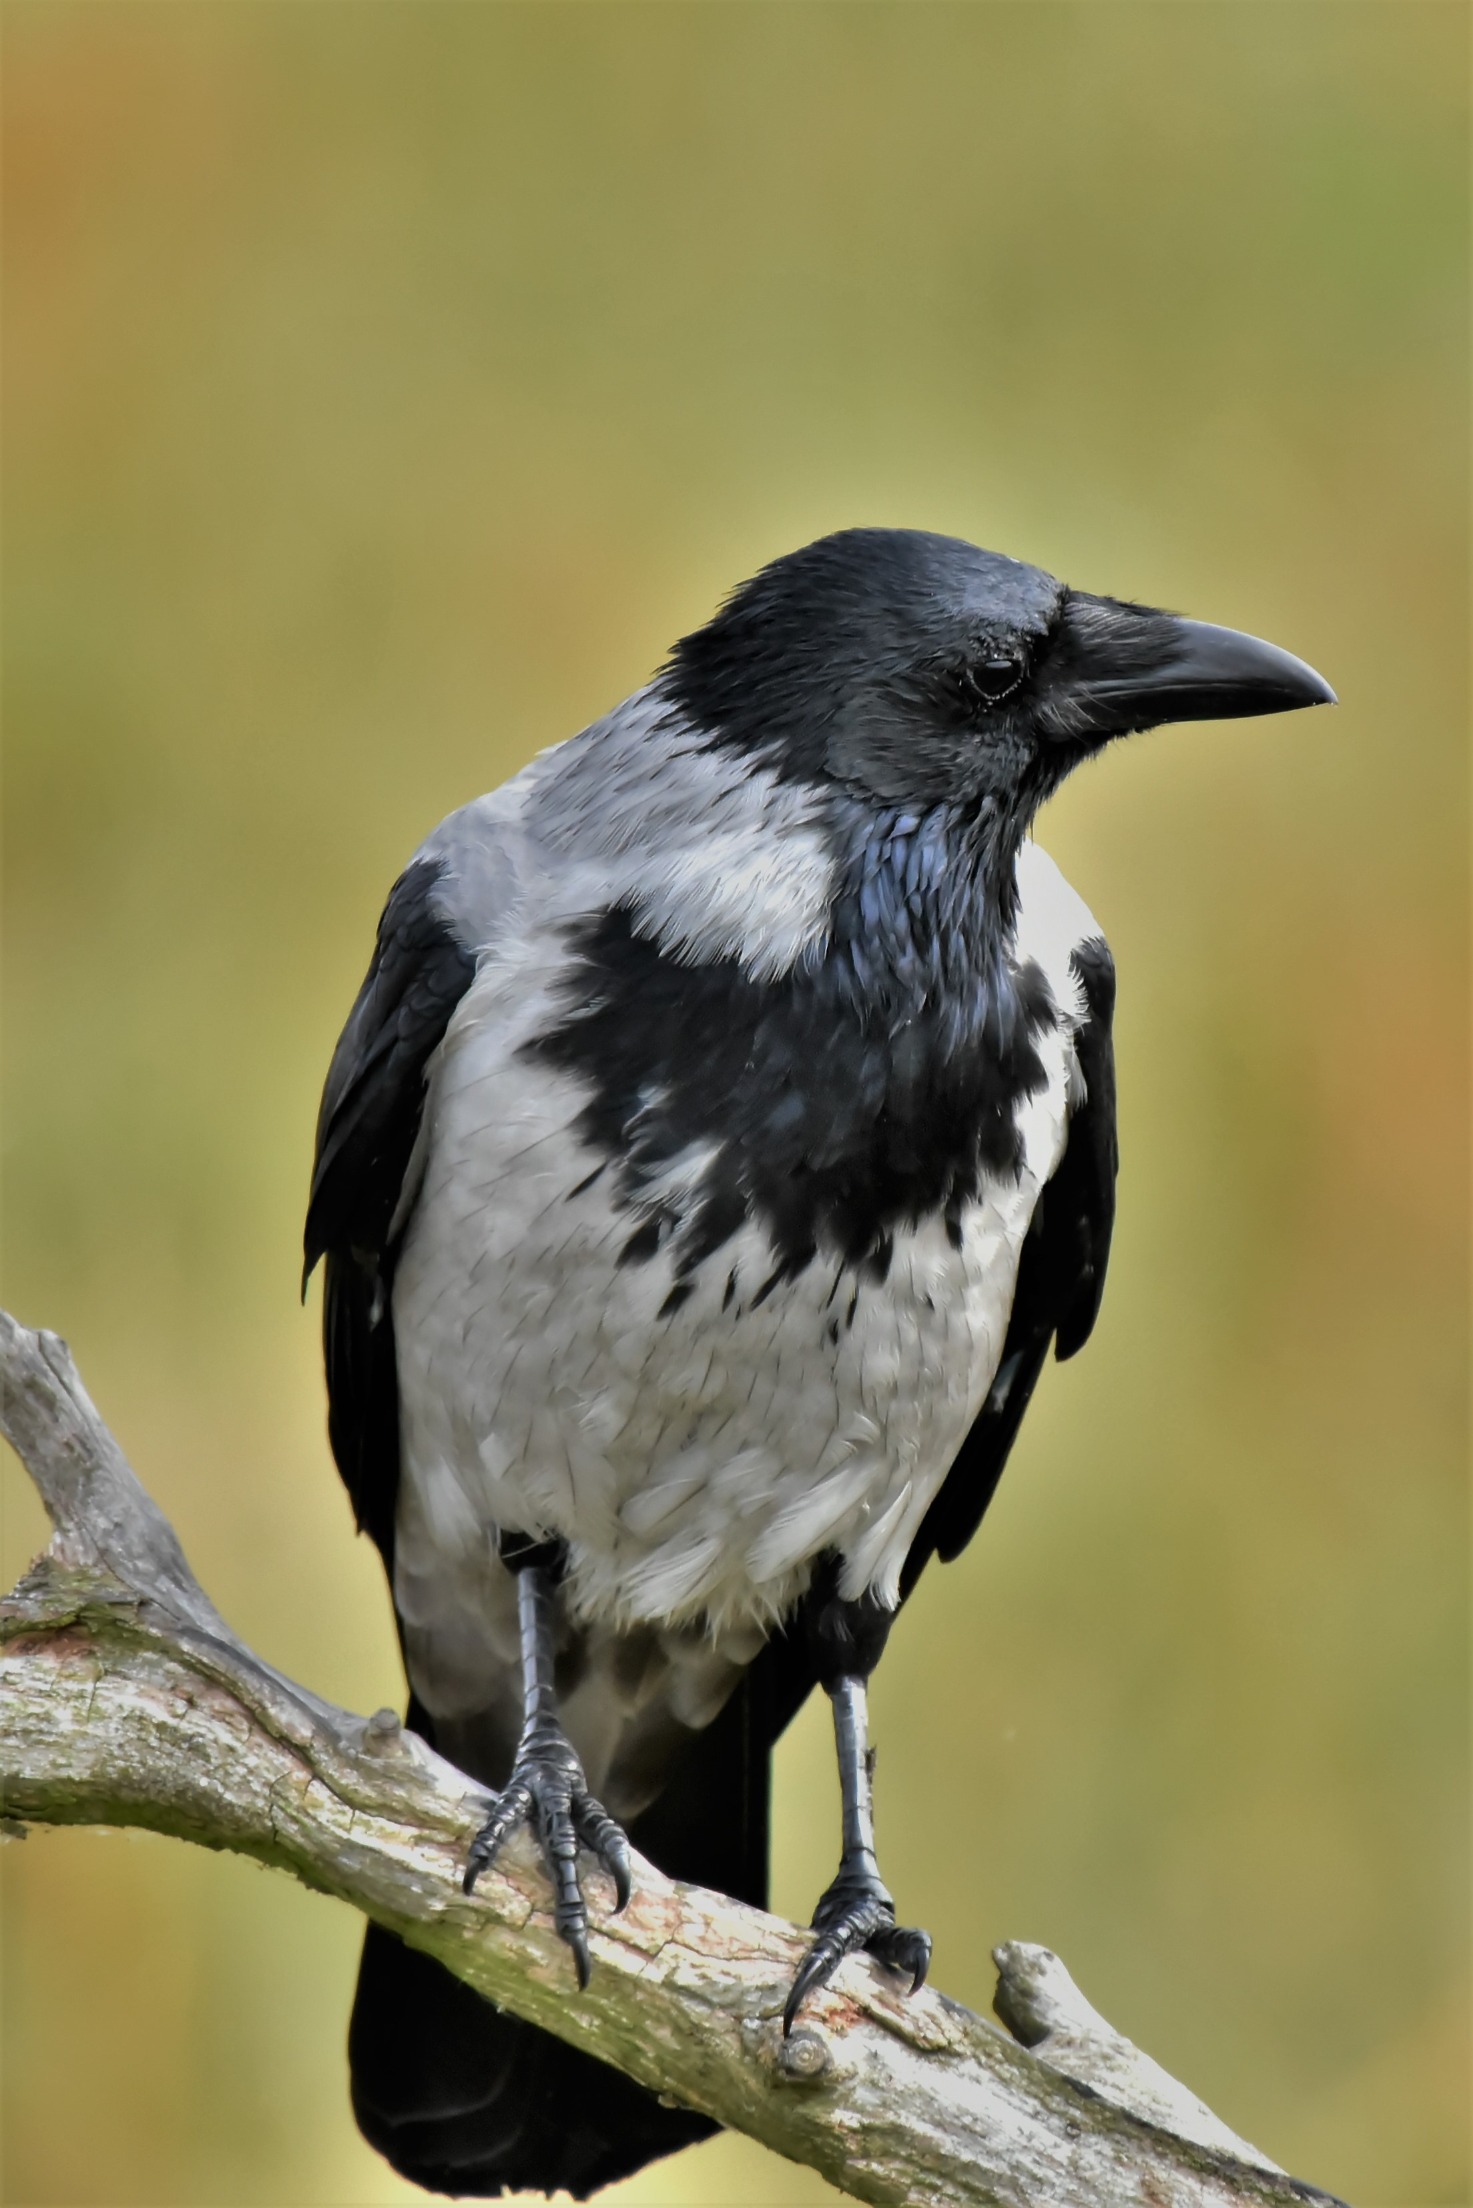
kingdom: Animalia
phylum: Chordata
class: Aves
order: Passeriformes
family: Corvidae
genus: Corvus
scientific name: Corvus cornix
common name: Gråkrage
